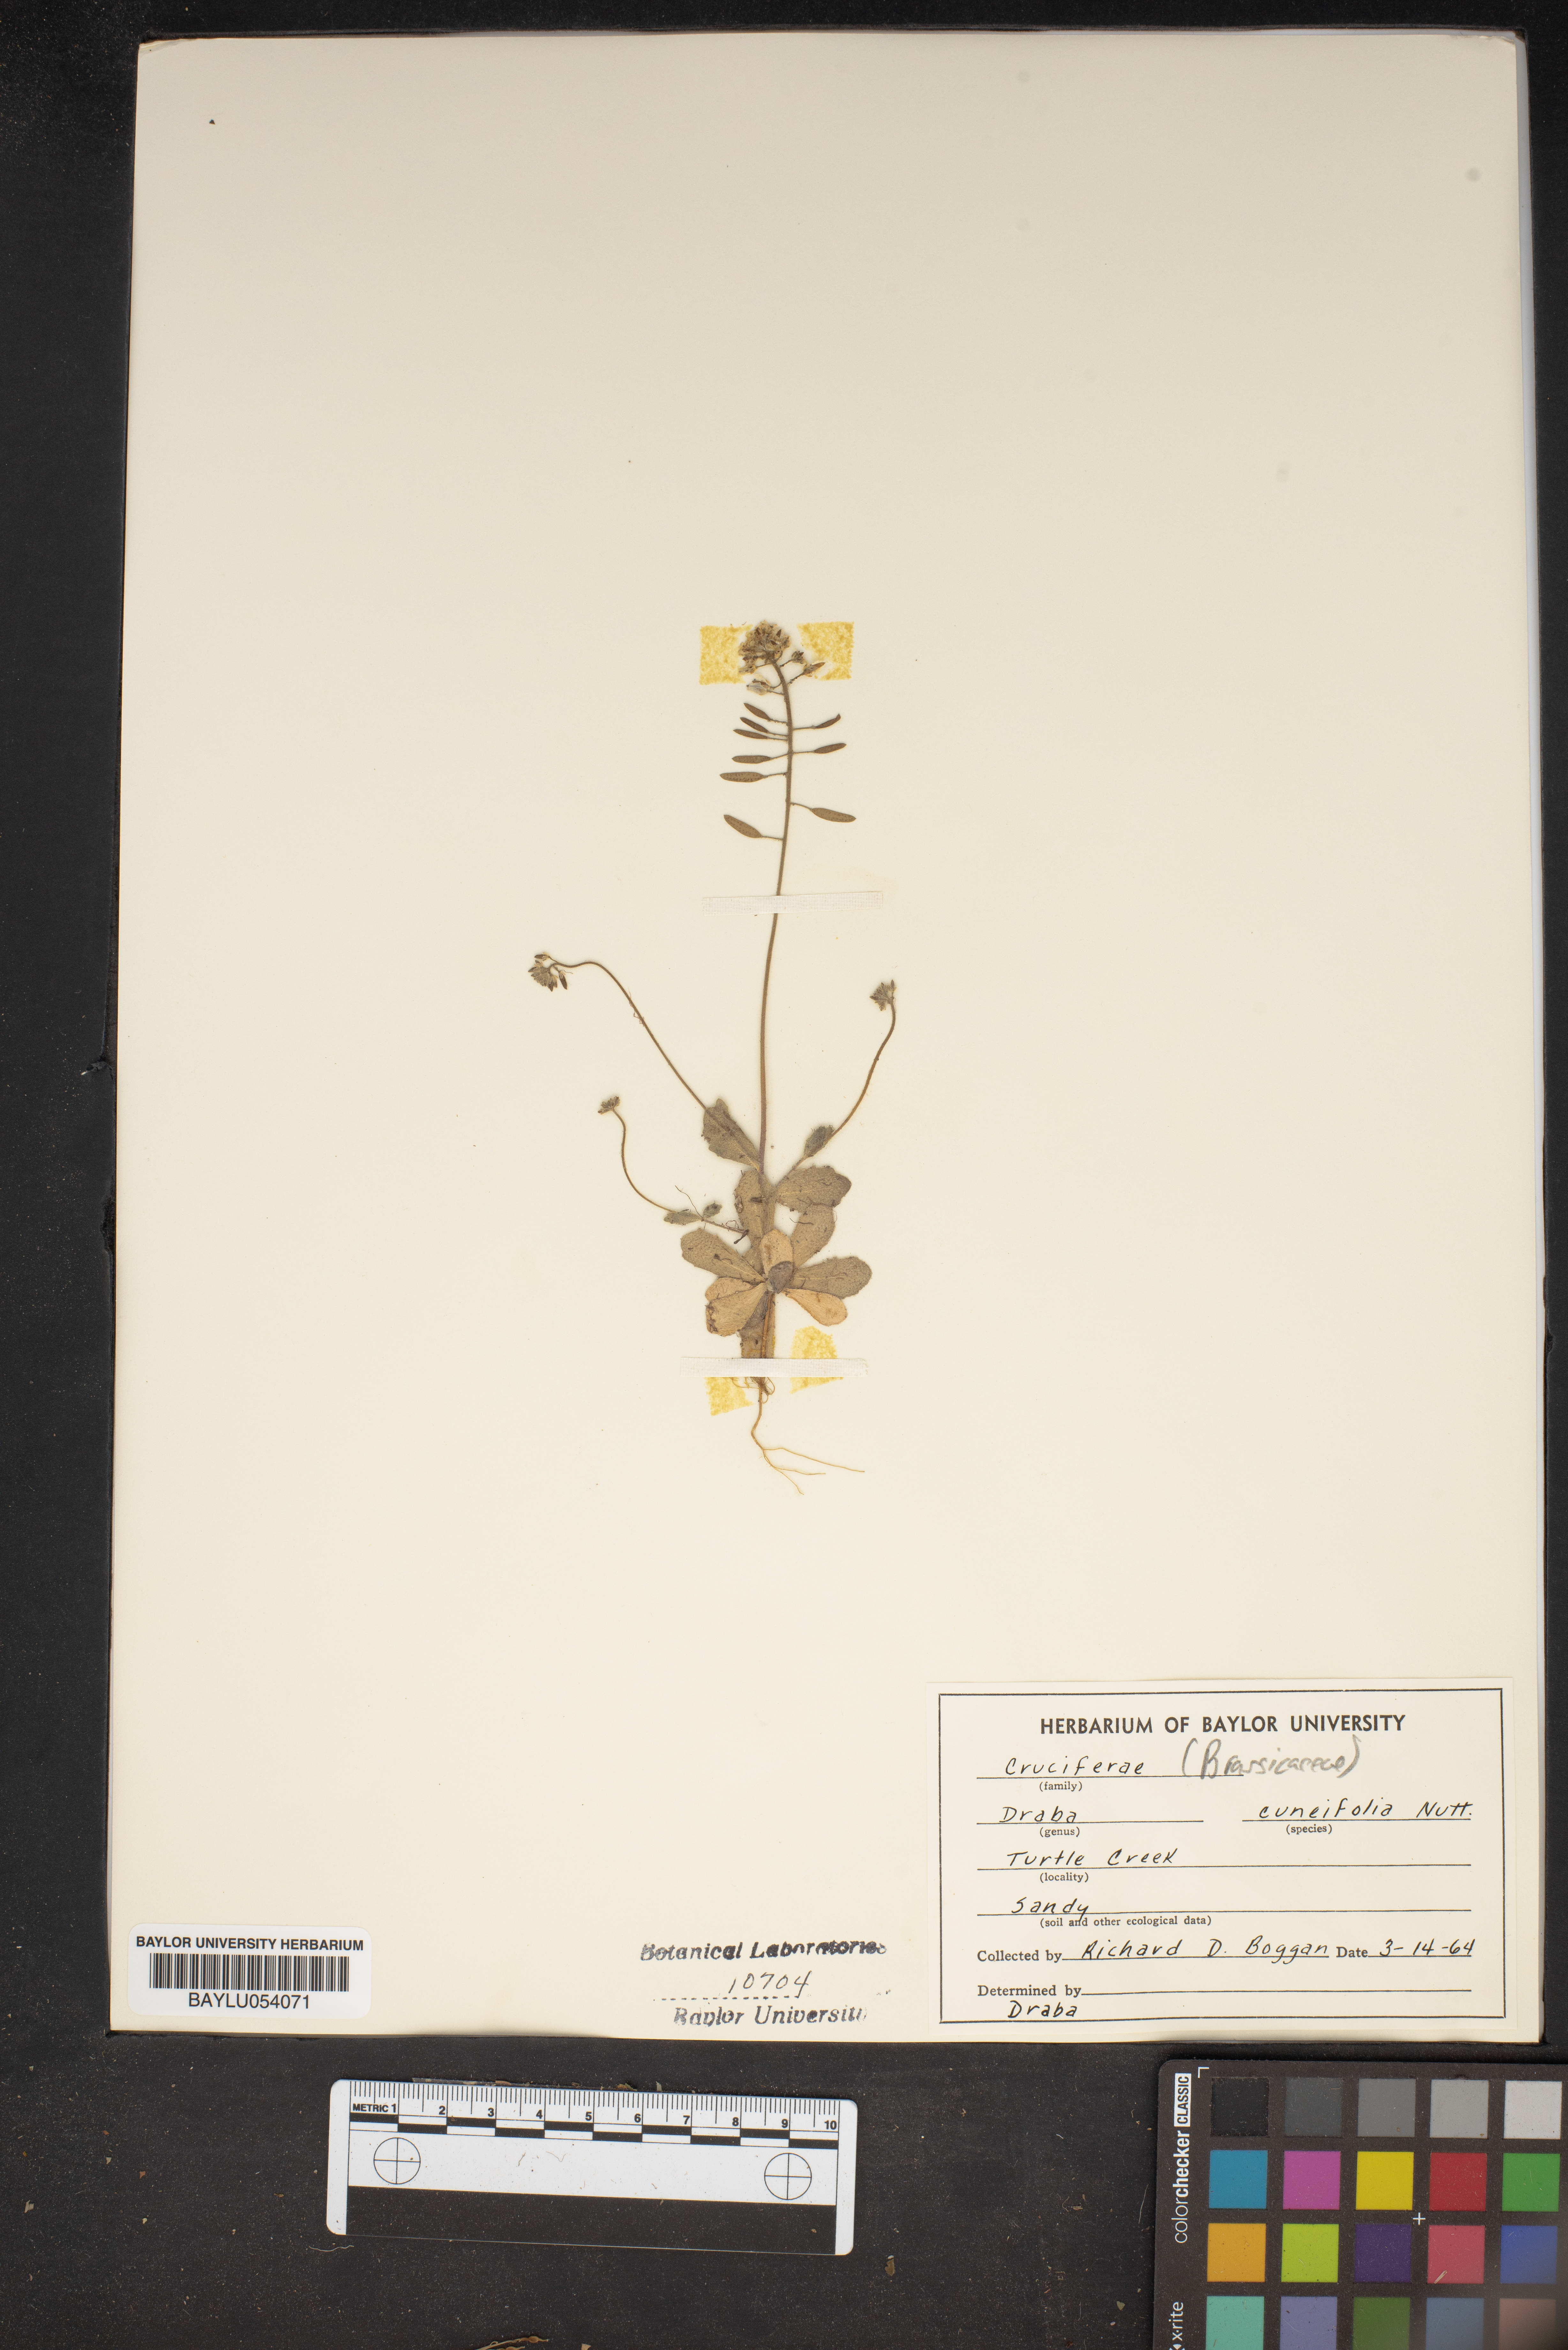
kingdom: Plantae
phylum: Tracheophyta
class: Magnoliopsida
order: Brassicales
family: Brassicaceae
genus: Tomostima
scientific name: Tomostima cuneifolia
